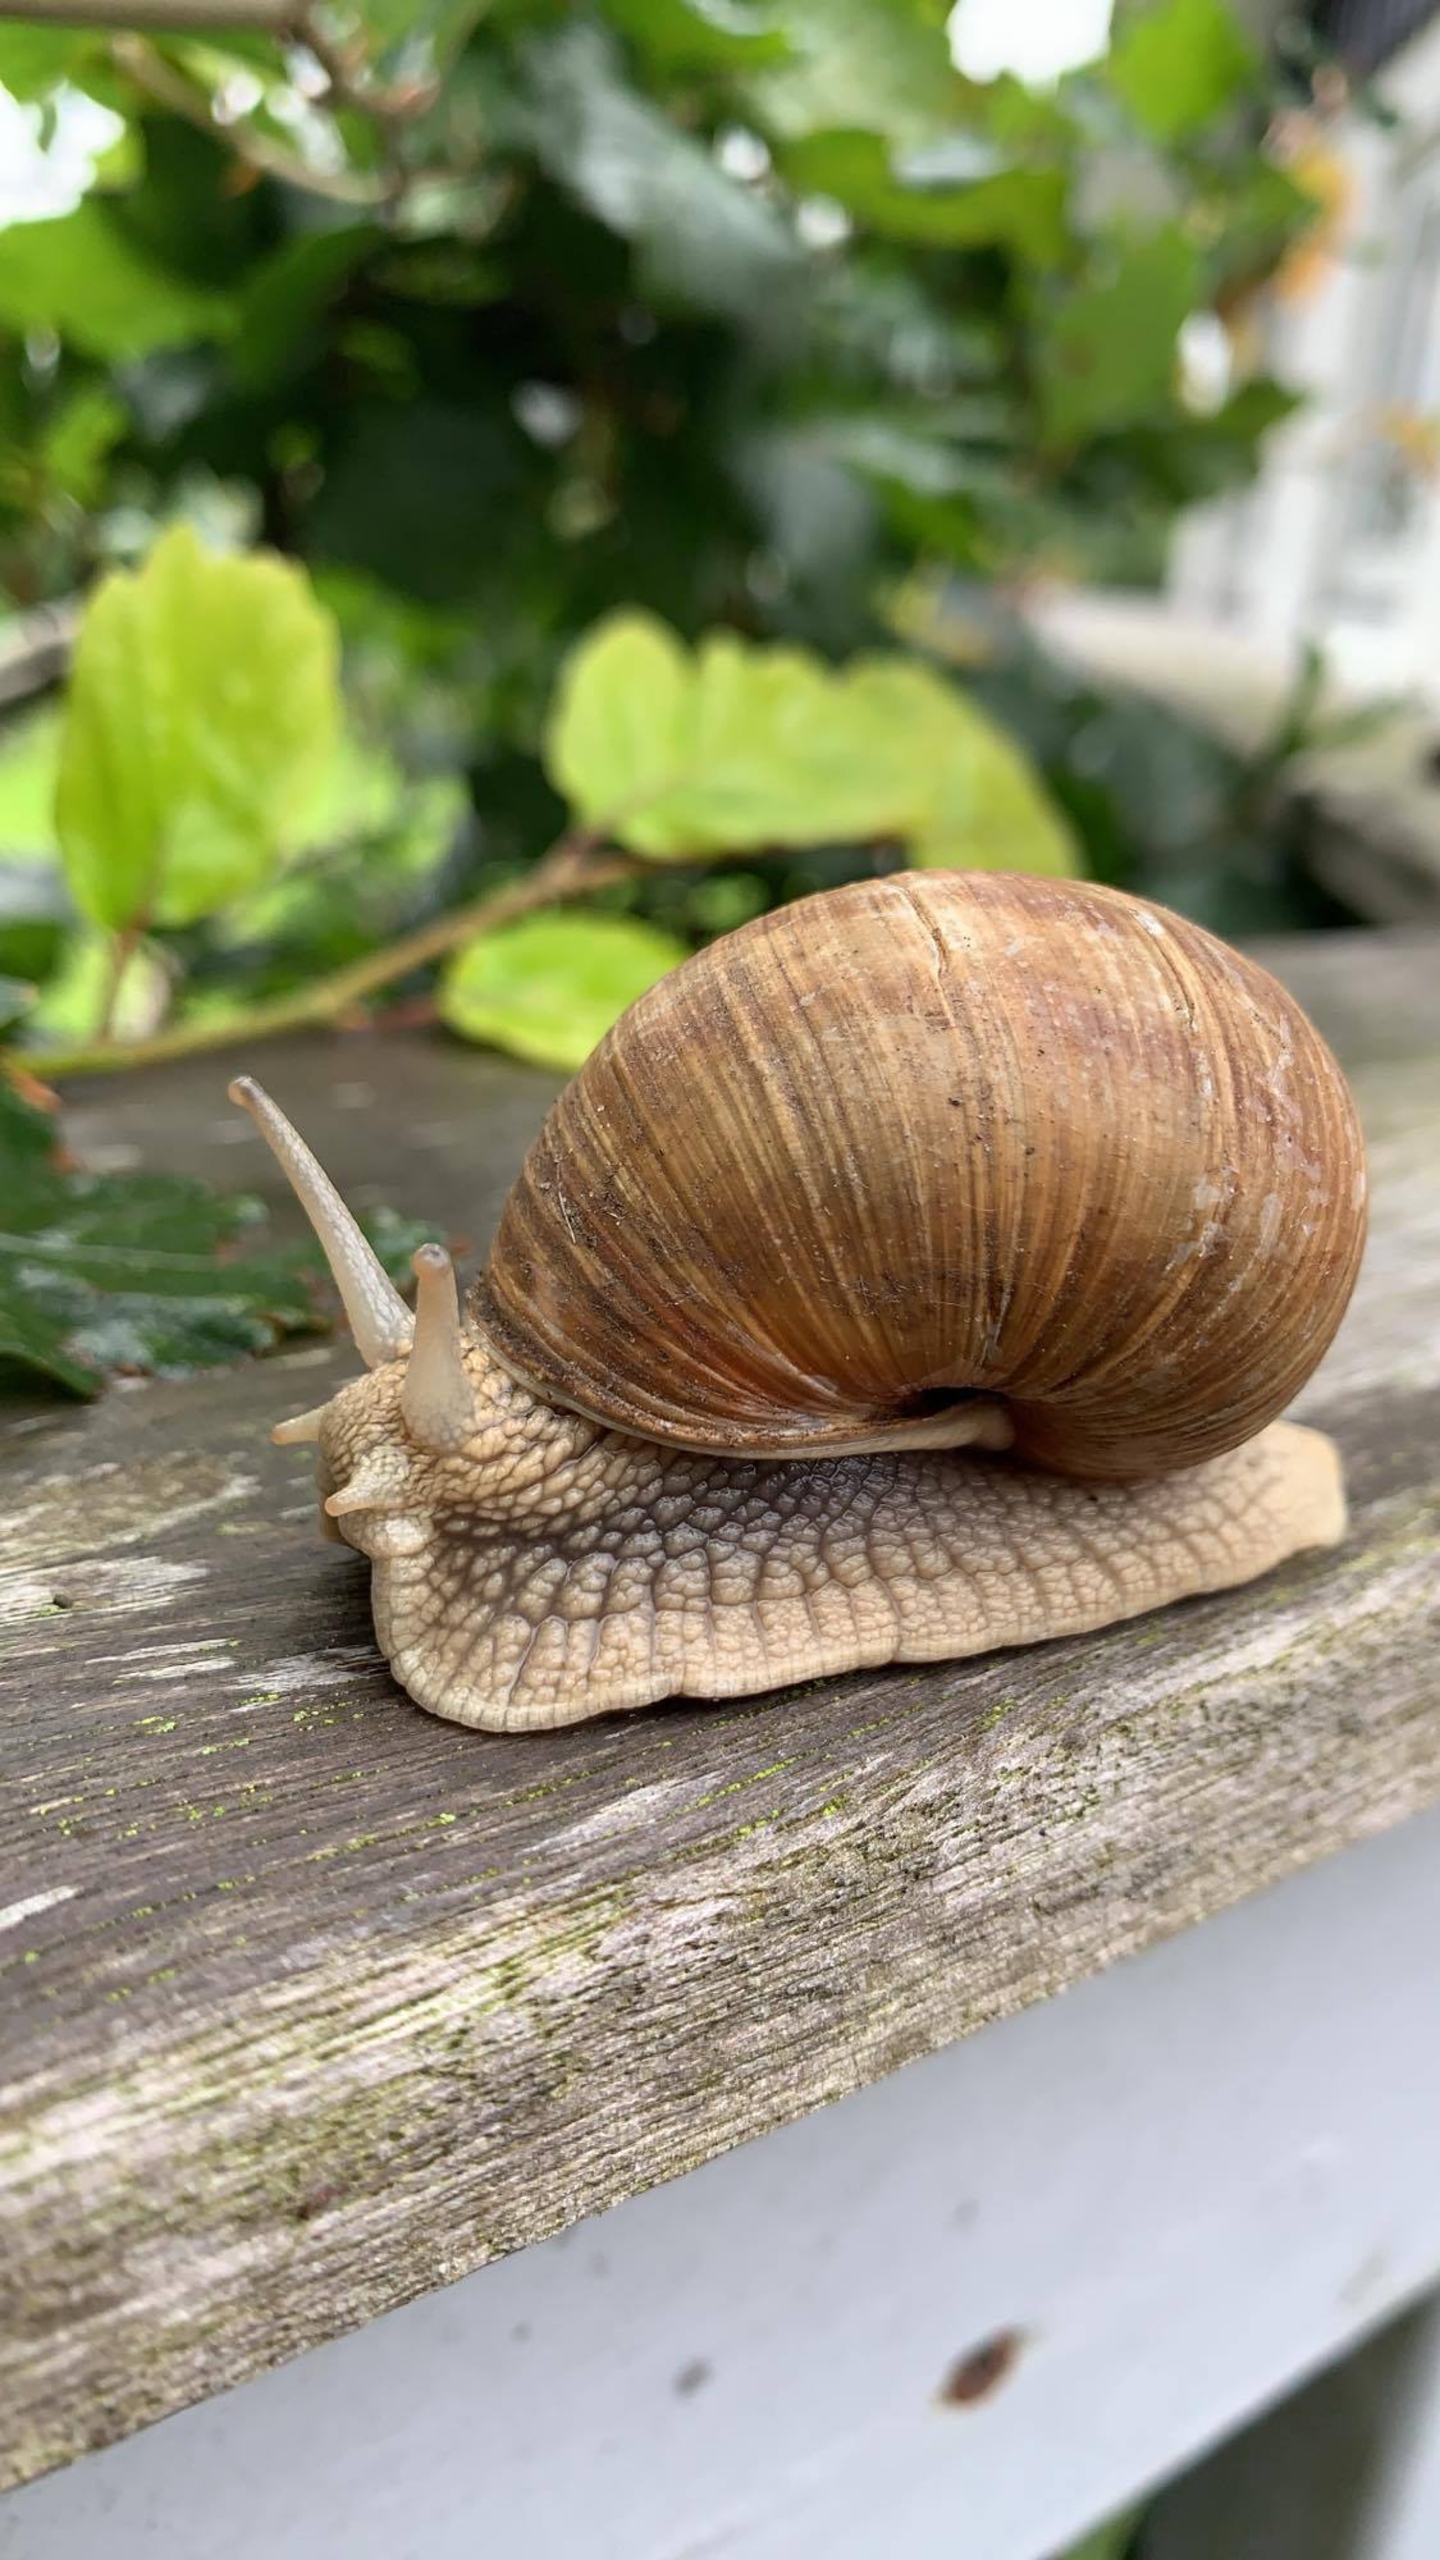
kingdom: Animalia
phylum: Mollusca
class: Gastropoda
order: Stylommatophora
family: Helicidae
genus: Helix
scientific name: Helix pomatia
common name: Vinbjergsnegl
